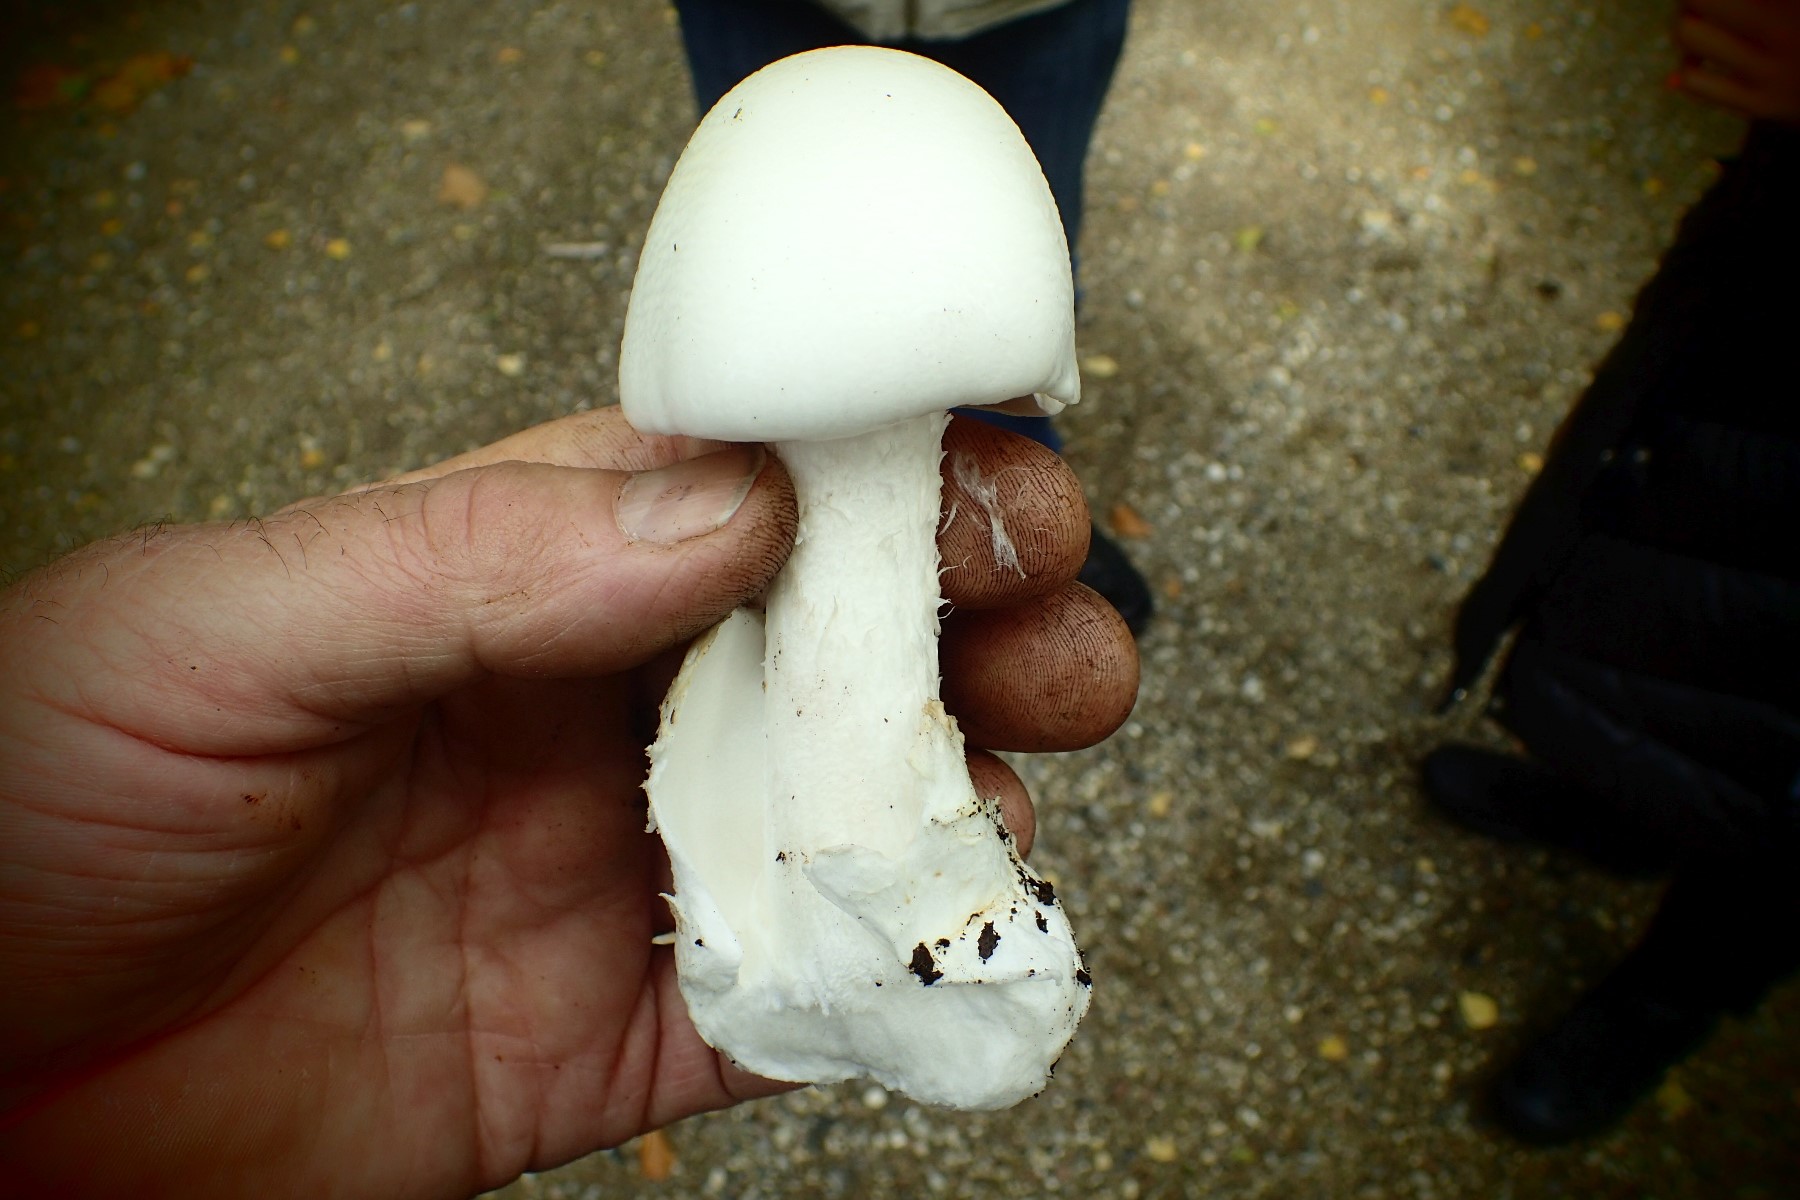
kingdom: Fungi
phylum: Basidiomycota
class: Agaricomycetes
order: Agaricales
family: Amanitaceae
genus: Amanita
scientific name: Amanita virosa
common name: snehvid fluesvamp
